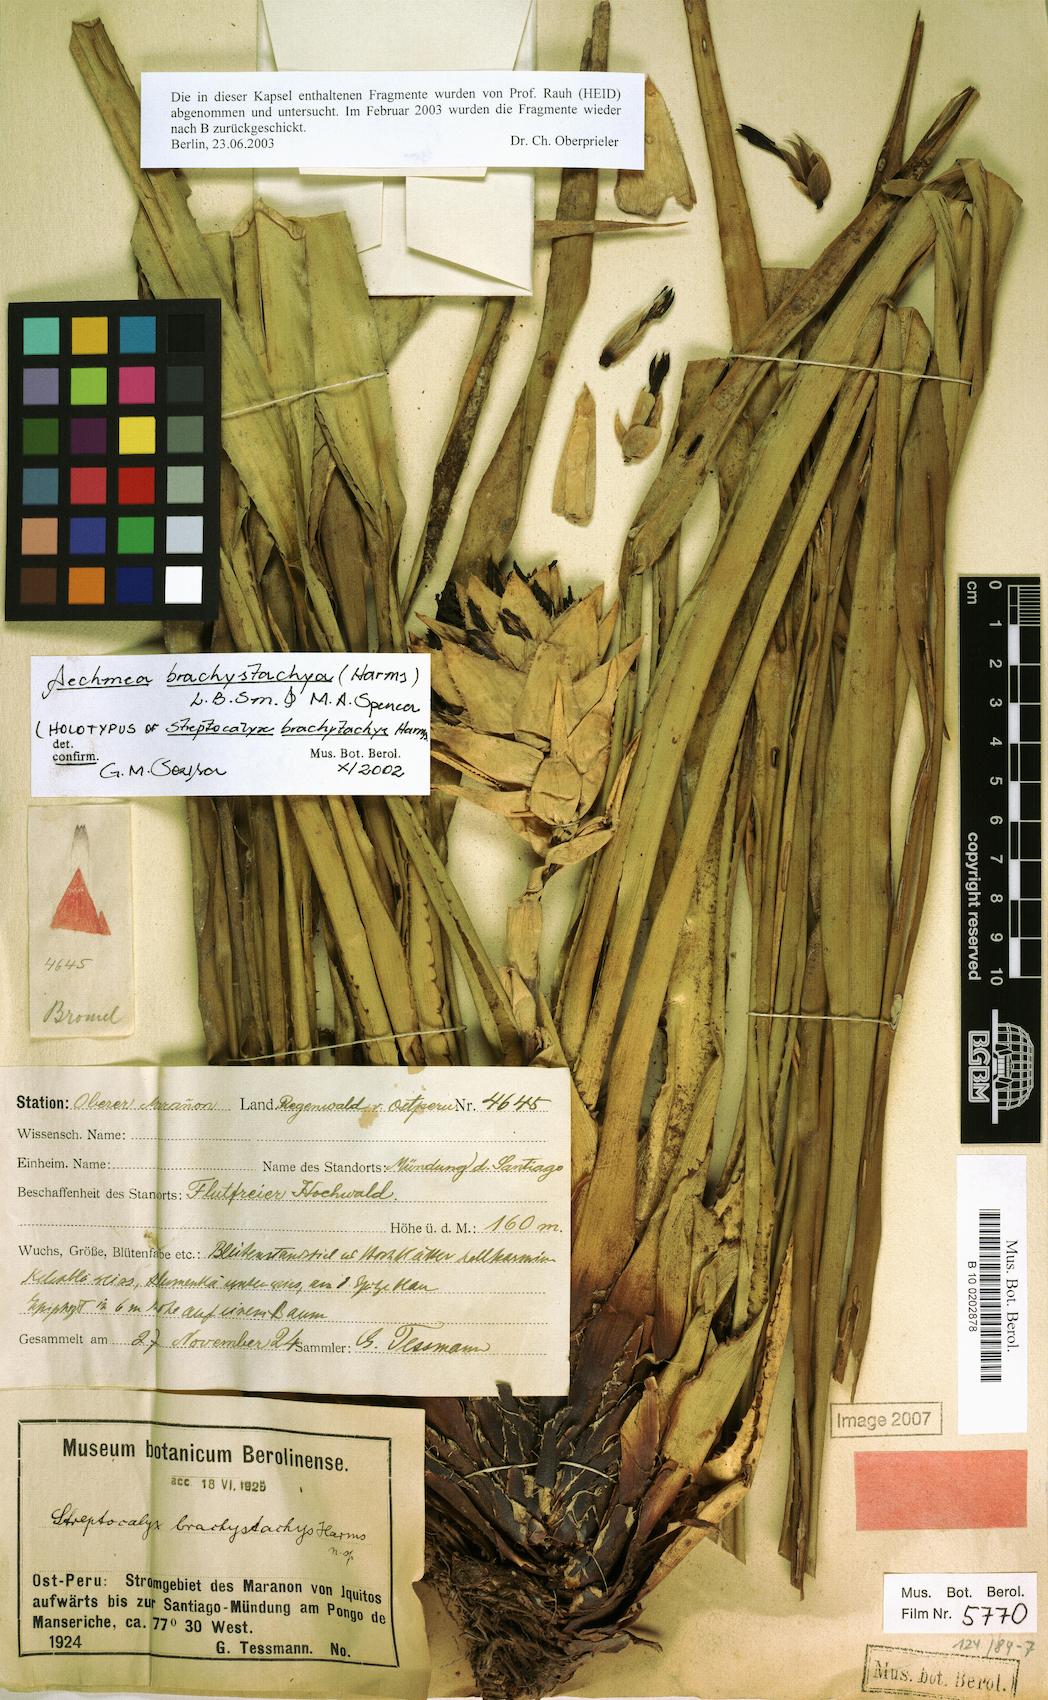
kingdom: Plantae
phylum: Tracheophyta
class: Liliopsida
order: Poales
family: Bromeliaceae
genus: Aechmea
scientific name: Aechmea brachystachys
